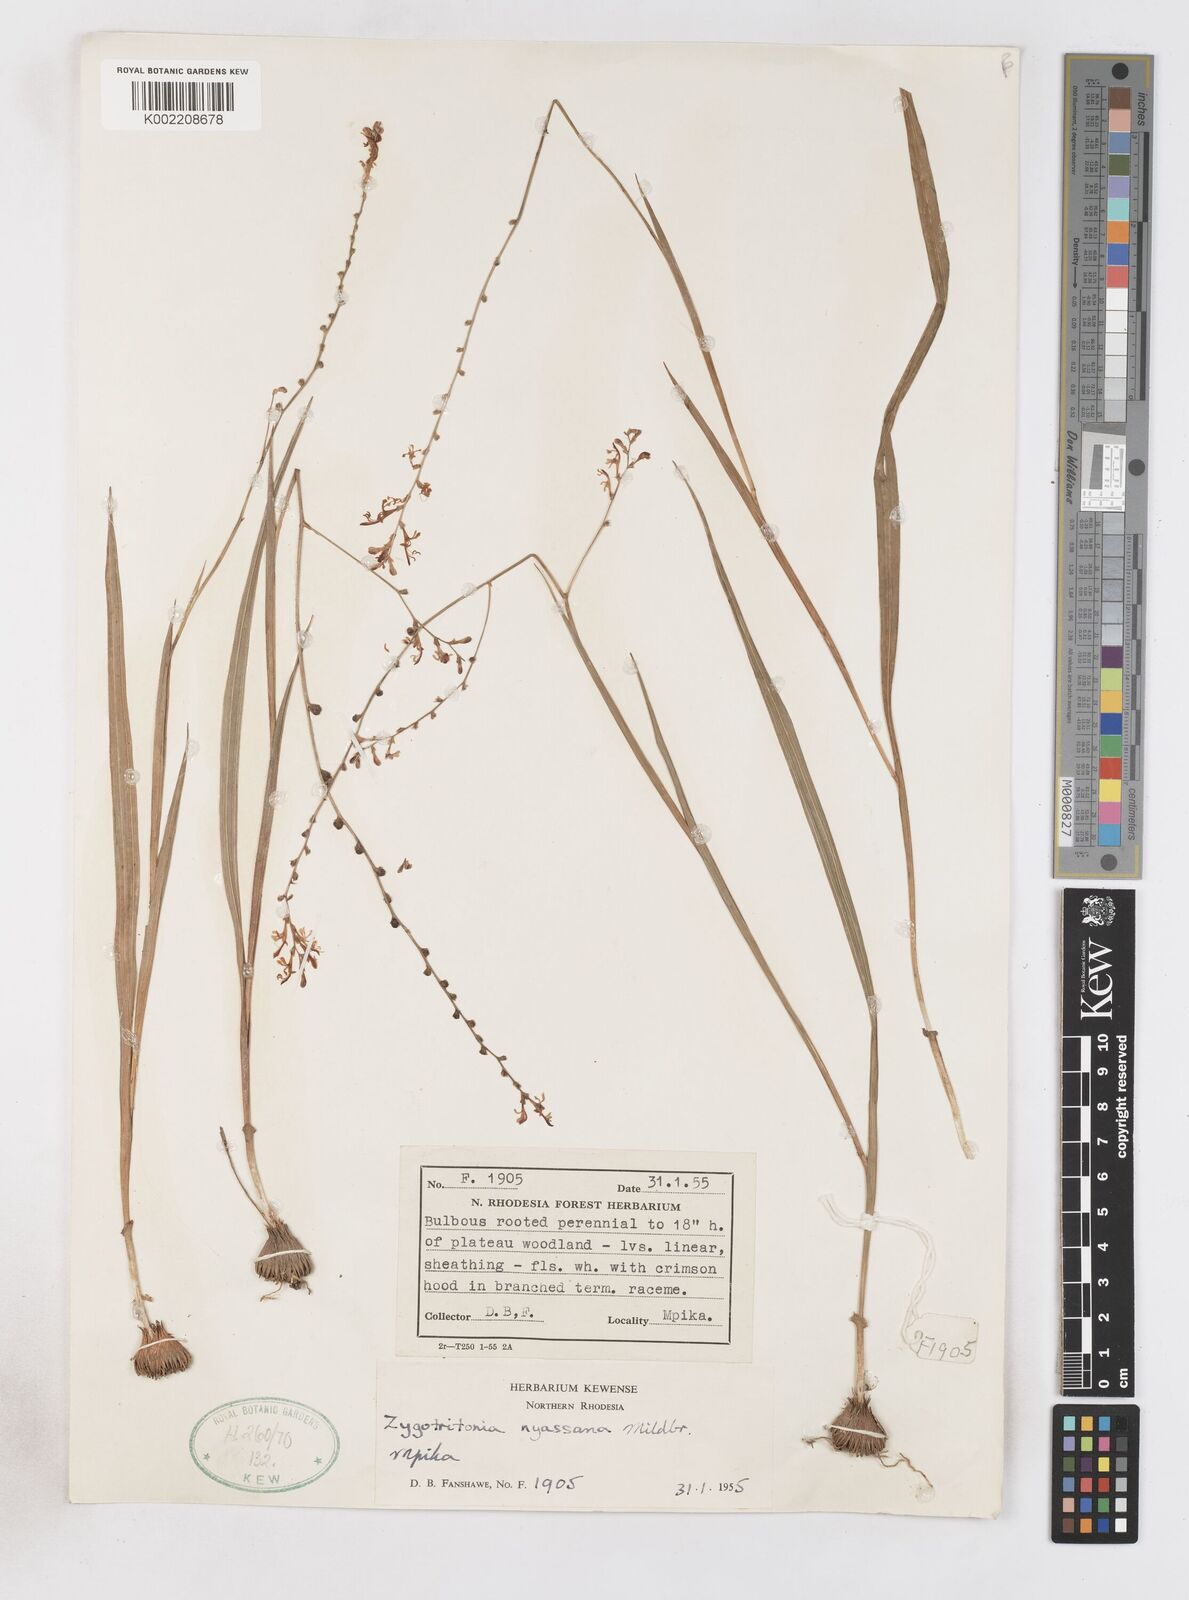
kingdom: Plantae
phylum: Tracheophyta
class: Liliopsida
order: Asparagales
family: Iridaceae
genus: Zygotritonia
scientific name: Zygotritonia nyassana
